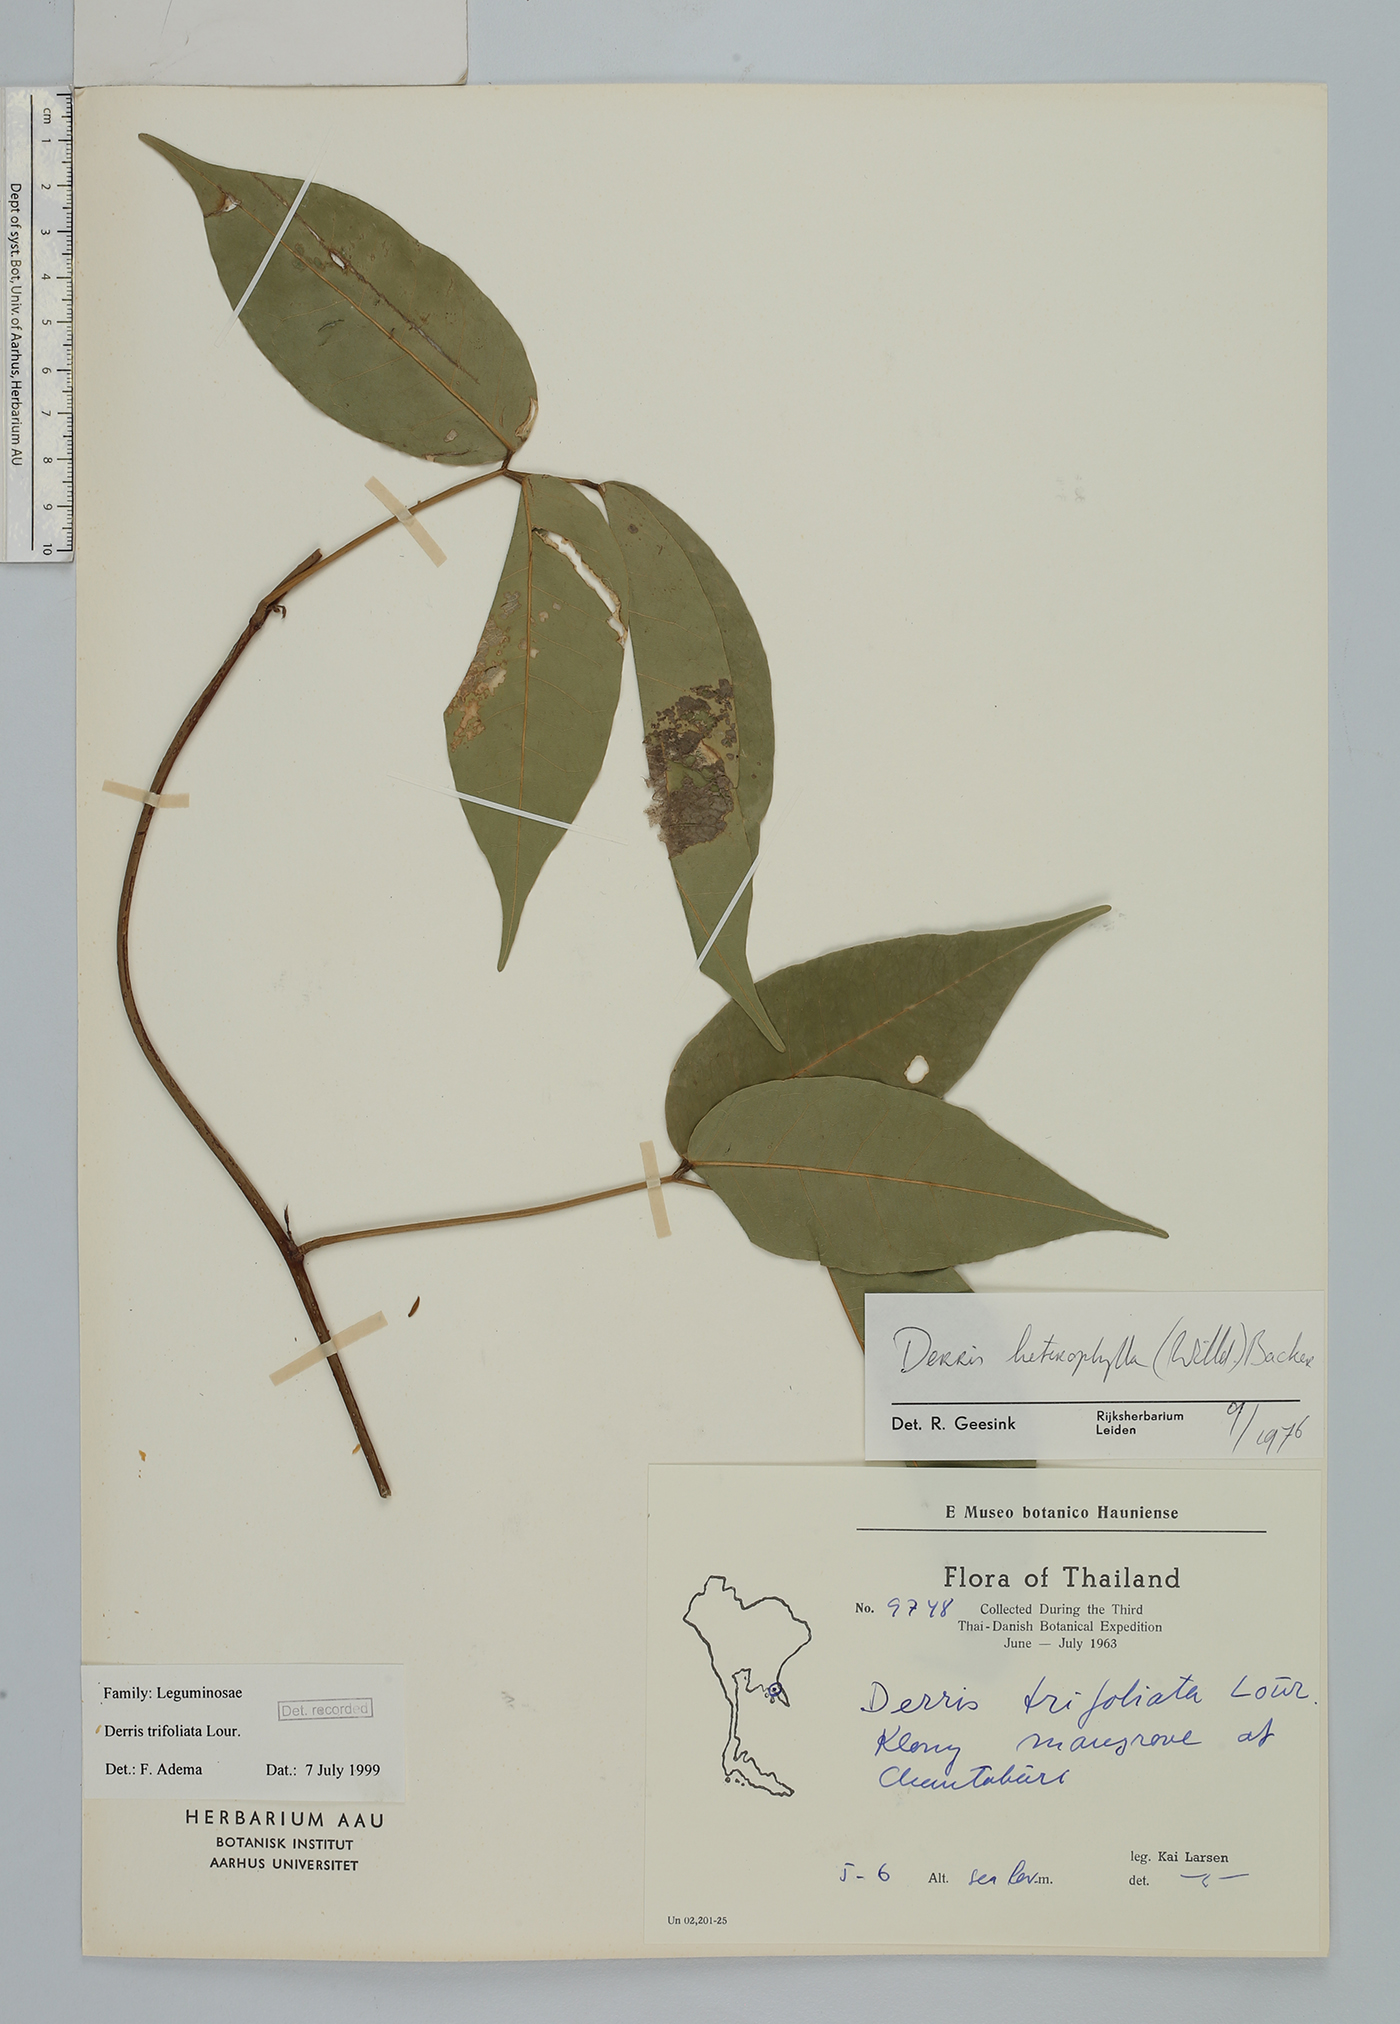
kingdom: Plantae
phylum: Tracheophyta
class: Magnoliopsida
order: Fabales
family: Fabaceae
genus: Derris
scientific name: Derris trifoliata
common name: Three-leaf derris
